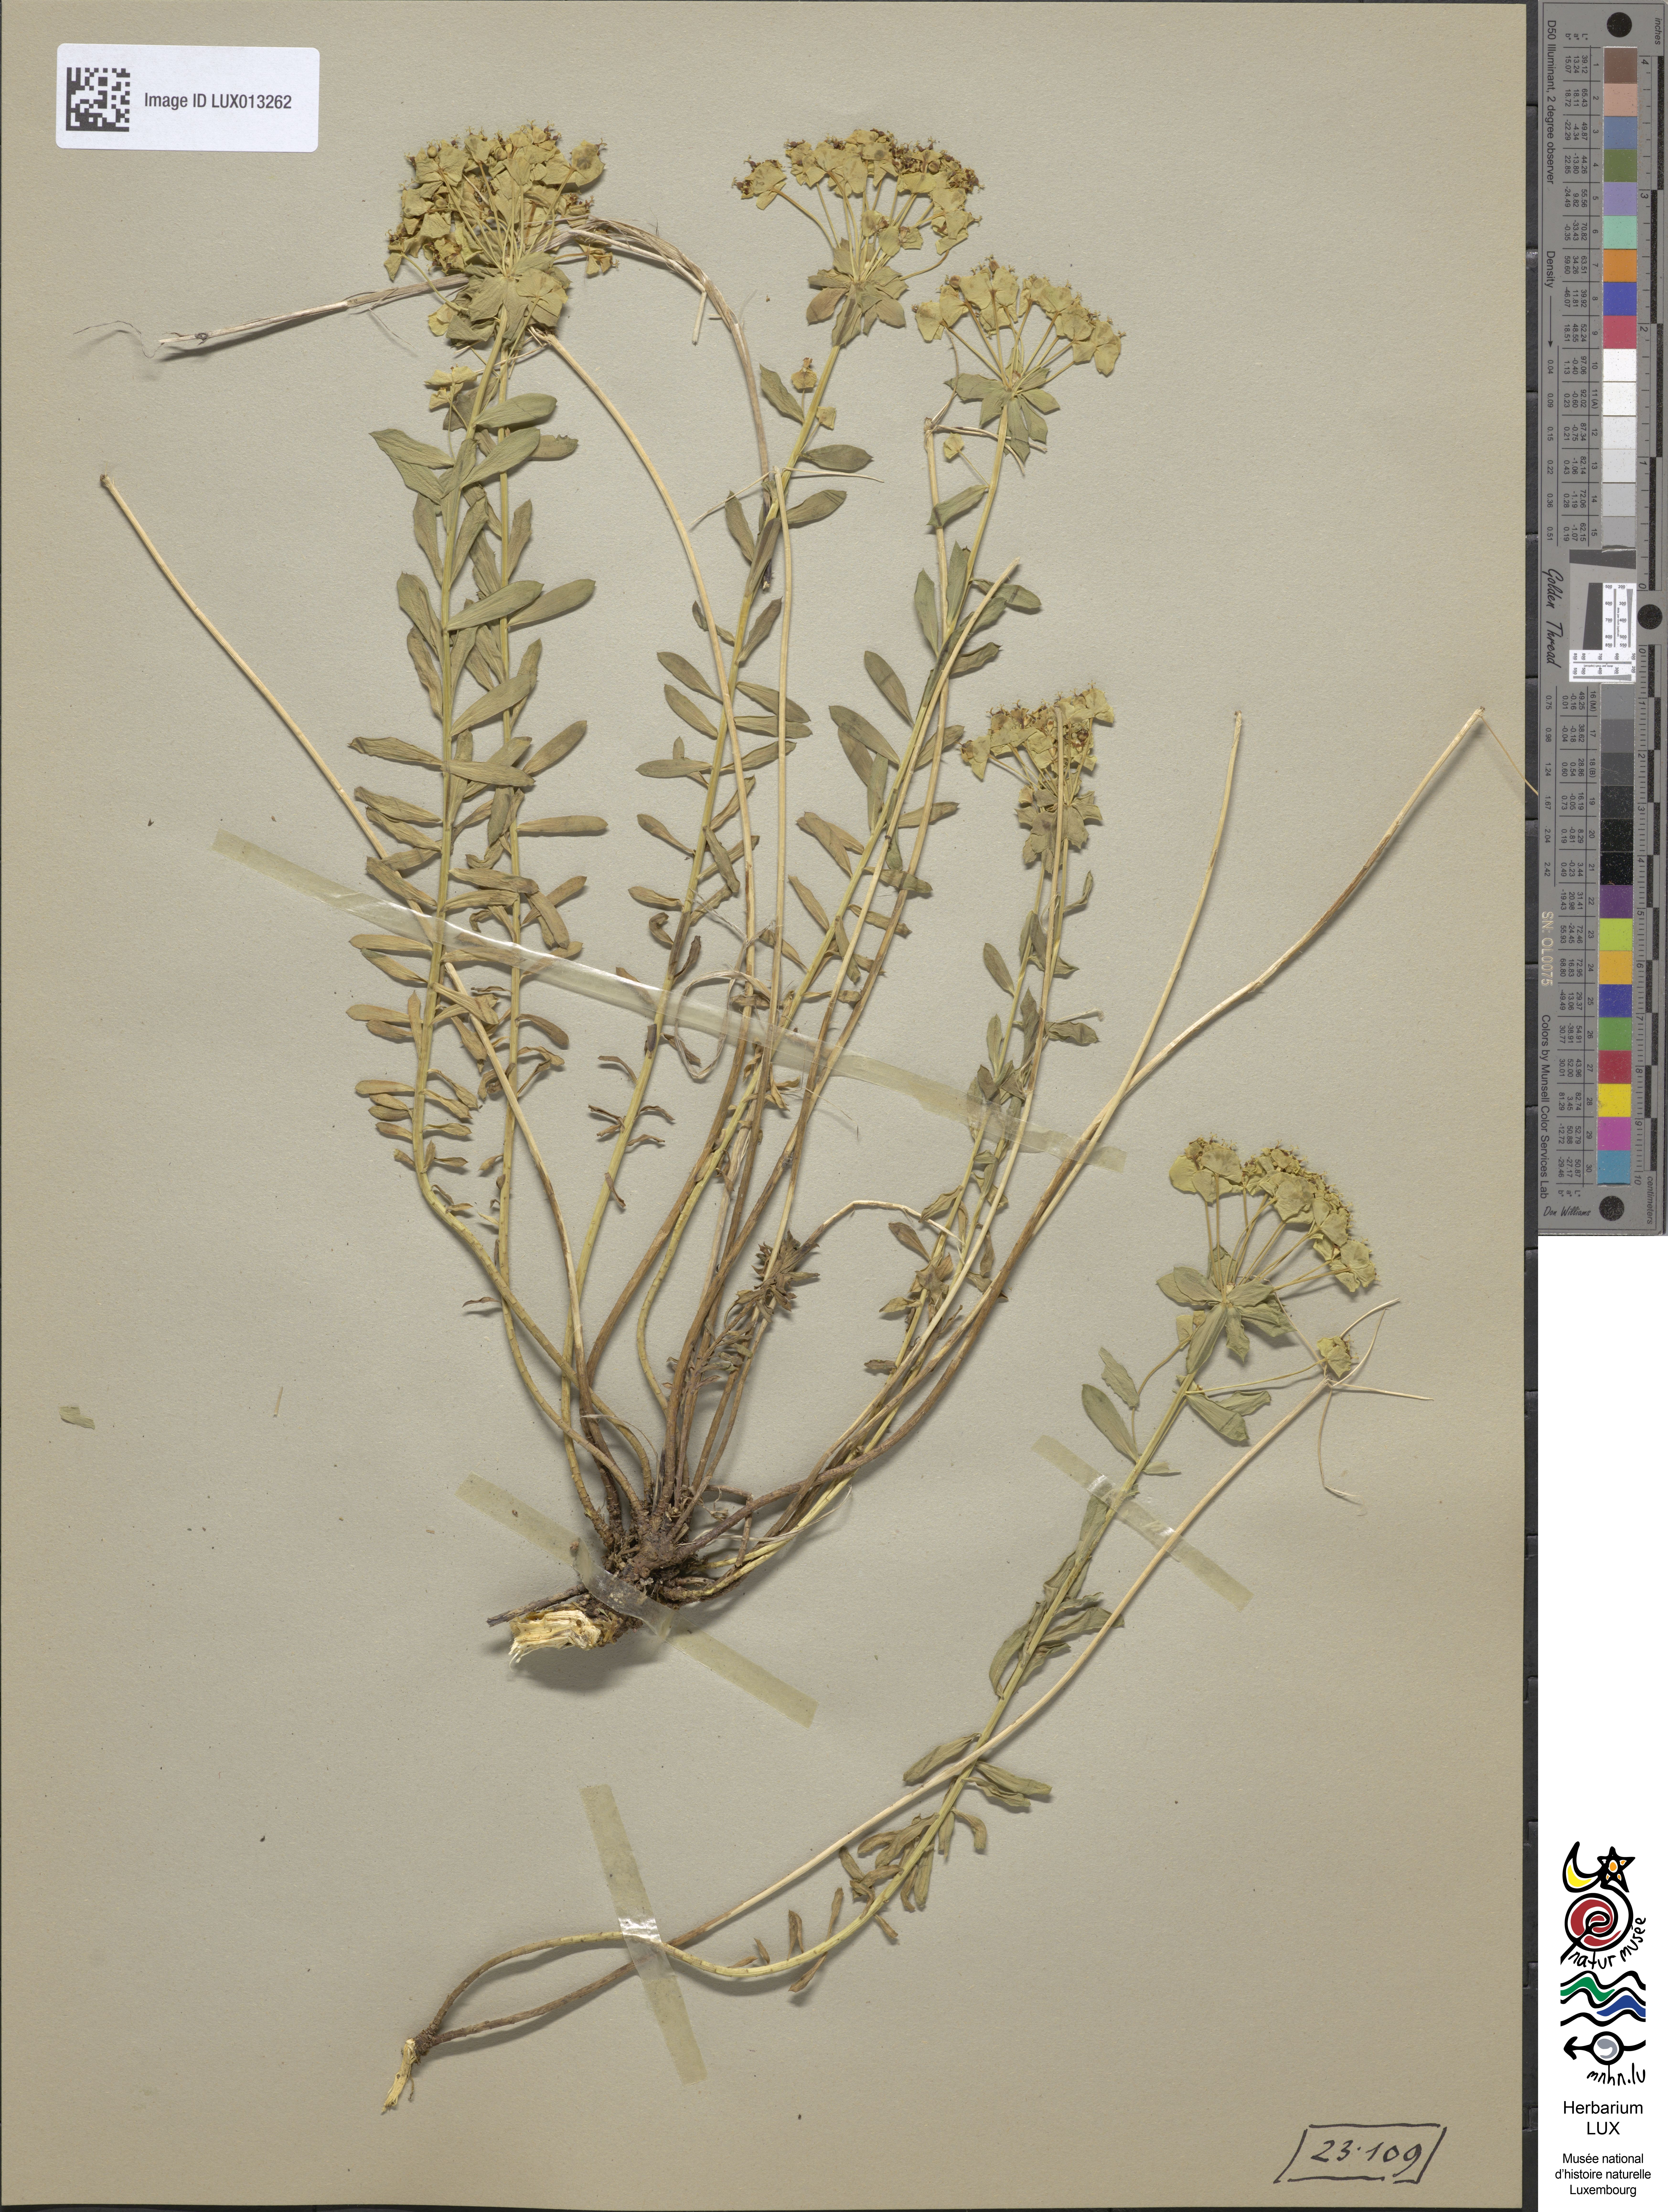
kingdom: Plantae
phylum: Tracheophyta
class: Magnoliopsida
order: Malpighiales
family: Euphorbiaceae
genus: Euphorbia
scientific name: Euphorbia seguieriana
